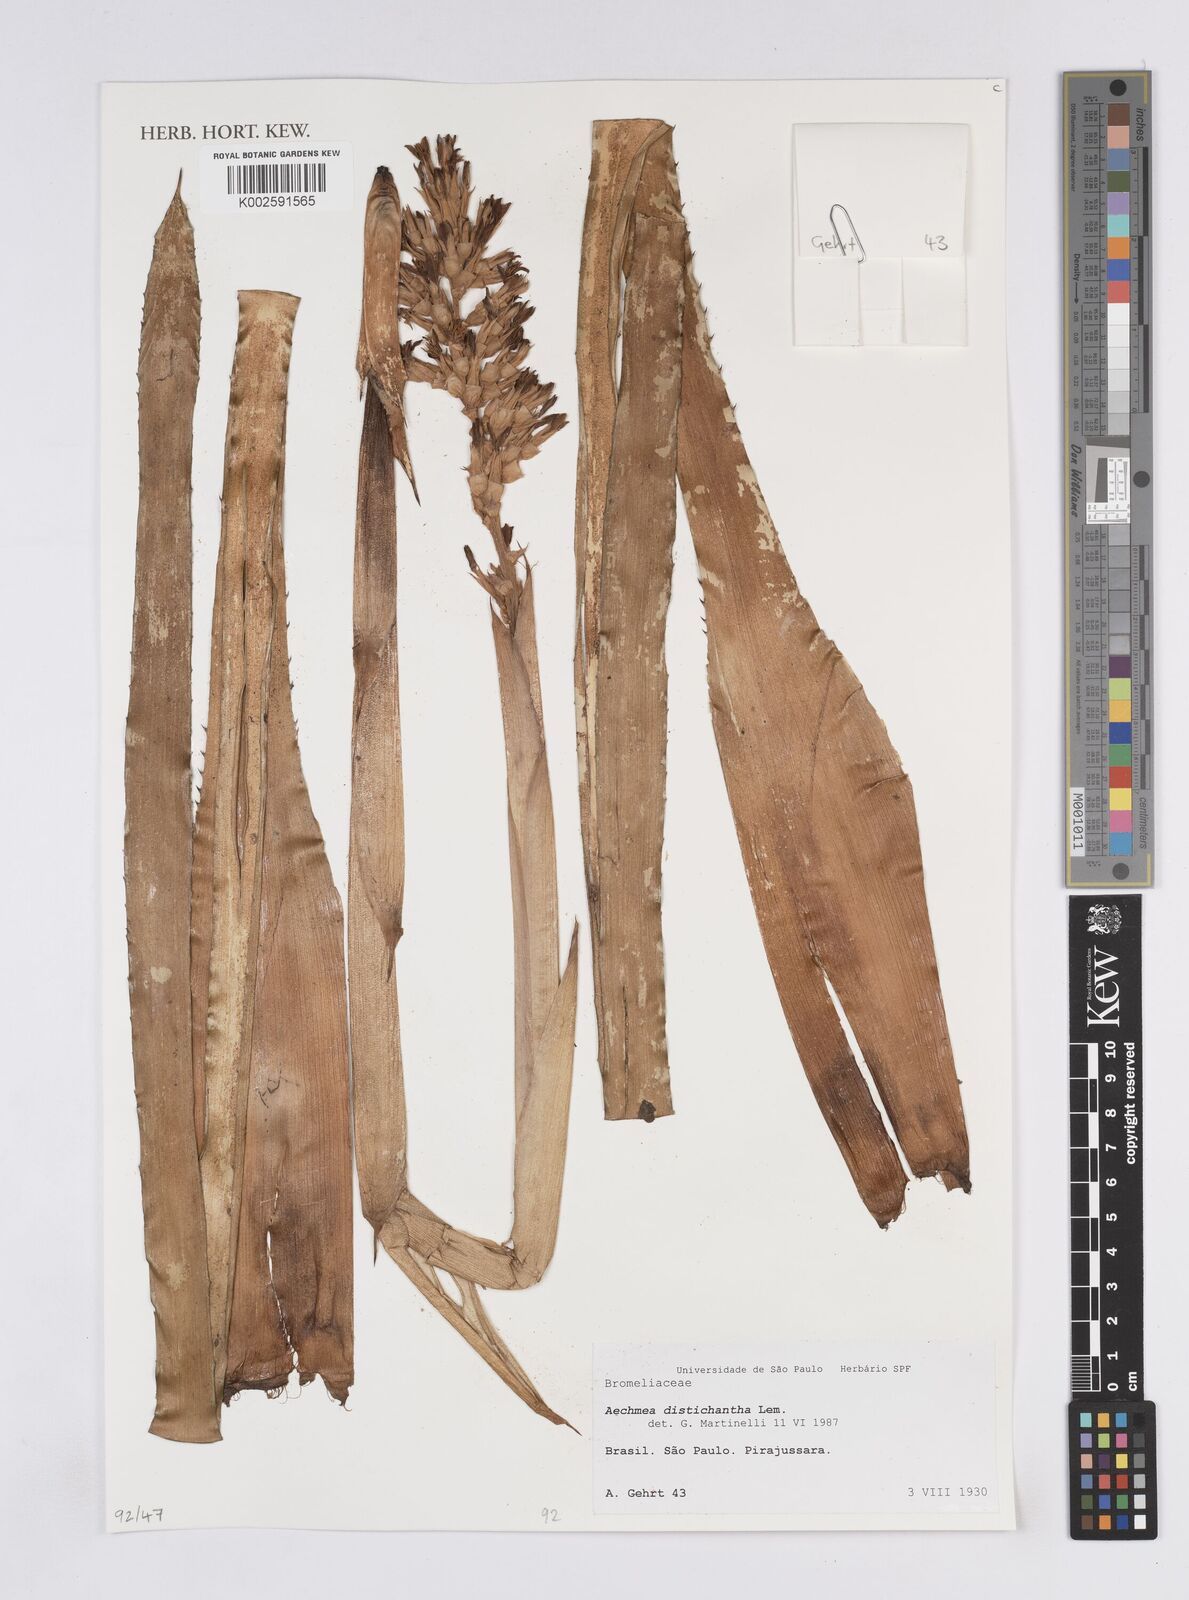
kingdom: Plantae
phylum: Tracheophyta
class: Liliopsida
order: Poales
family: Bromeliaceae
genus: Aechmea
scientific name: Aechmea distichantha
